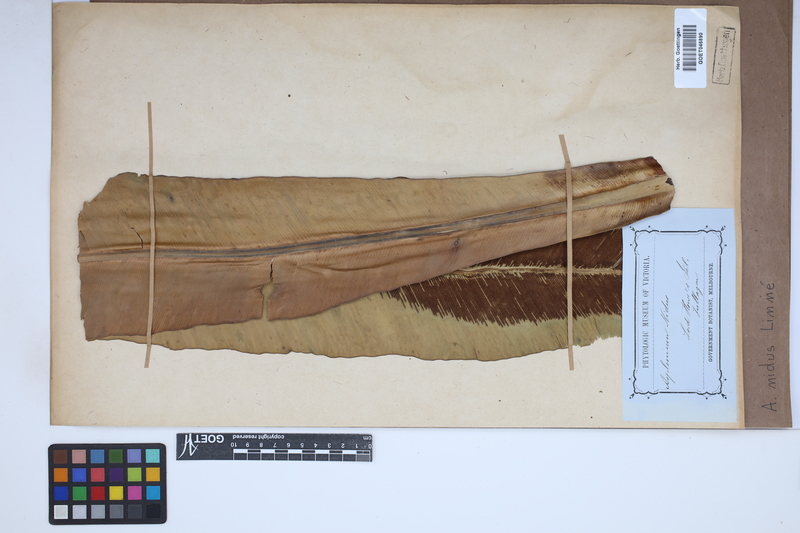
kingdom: Plantae
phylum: Tracheophyta
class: Polypodiopsida
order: Polypodiales
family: Aspleniaceae
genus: Asplenium
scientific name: Asplenium nidus
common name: Bird's-nest fern
